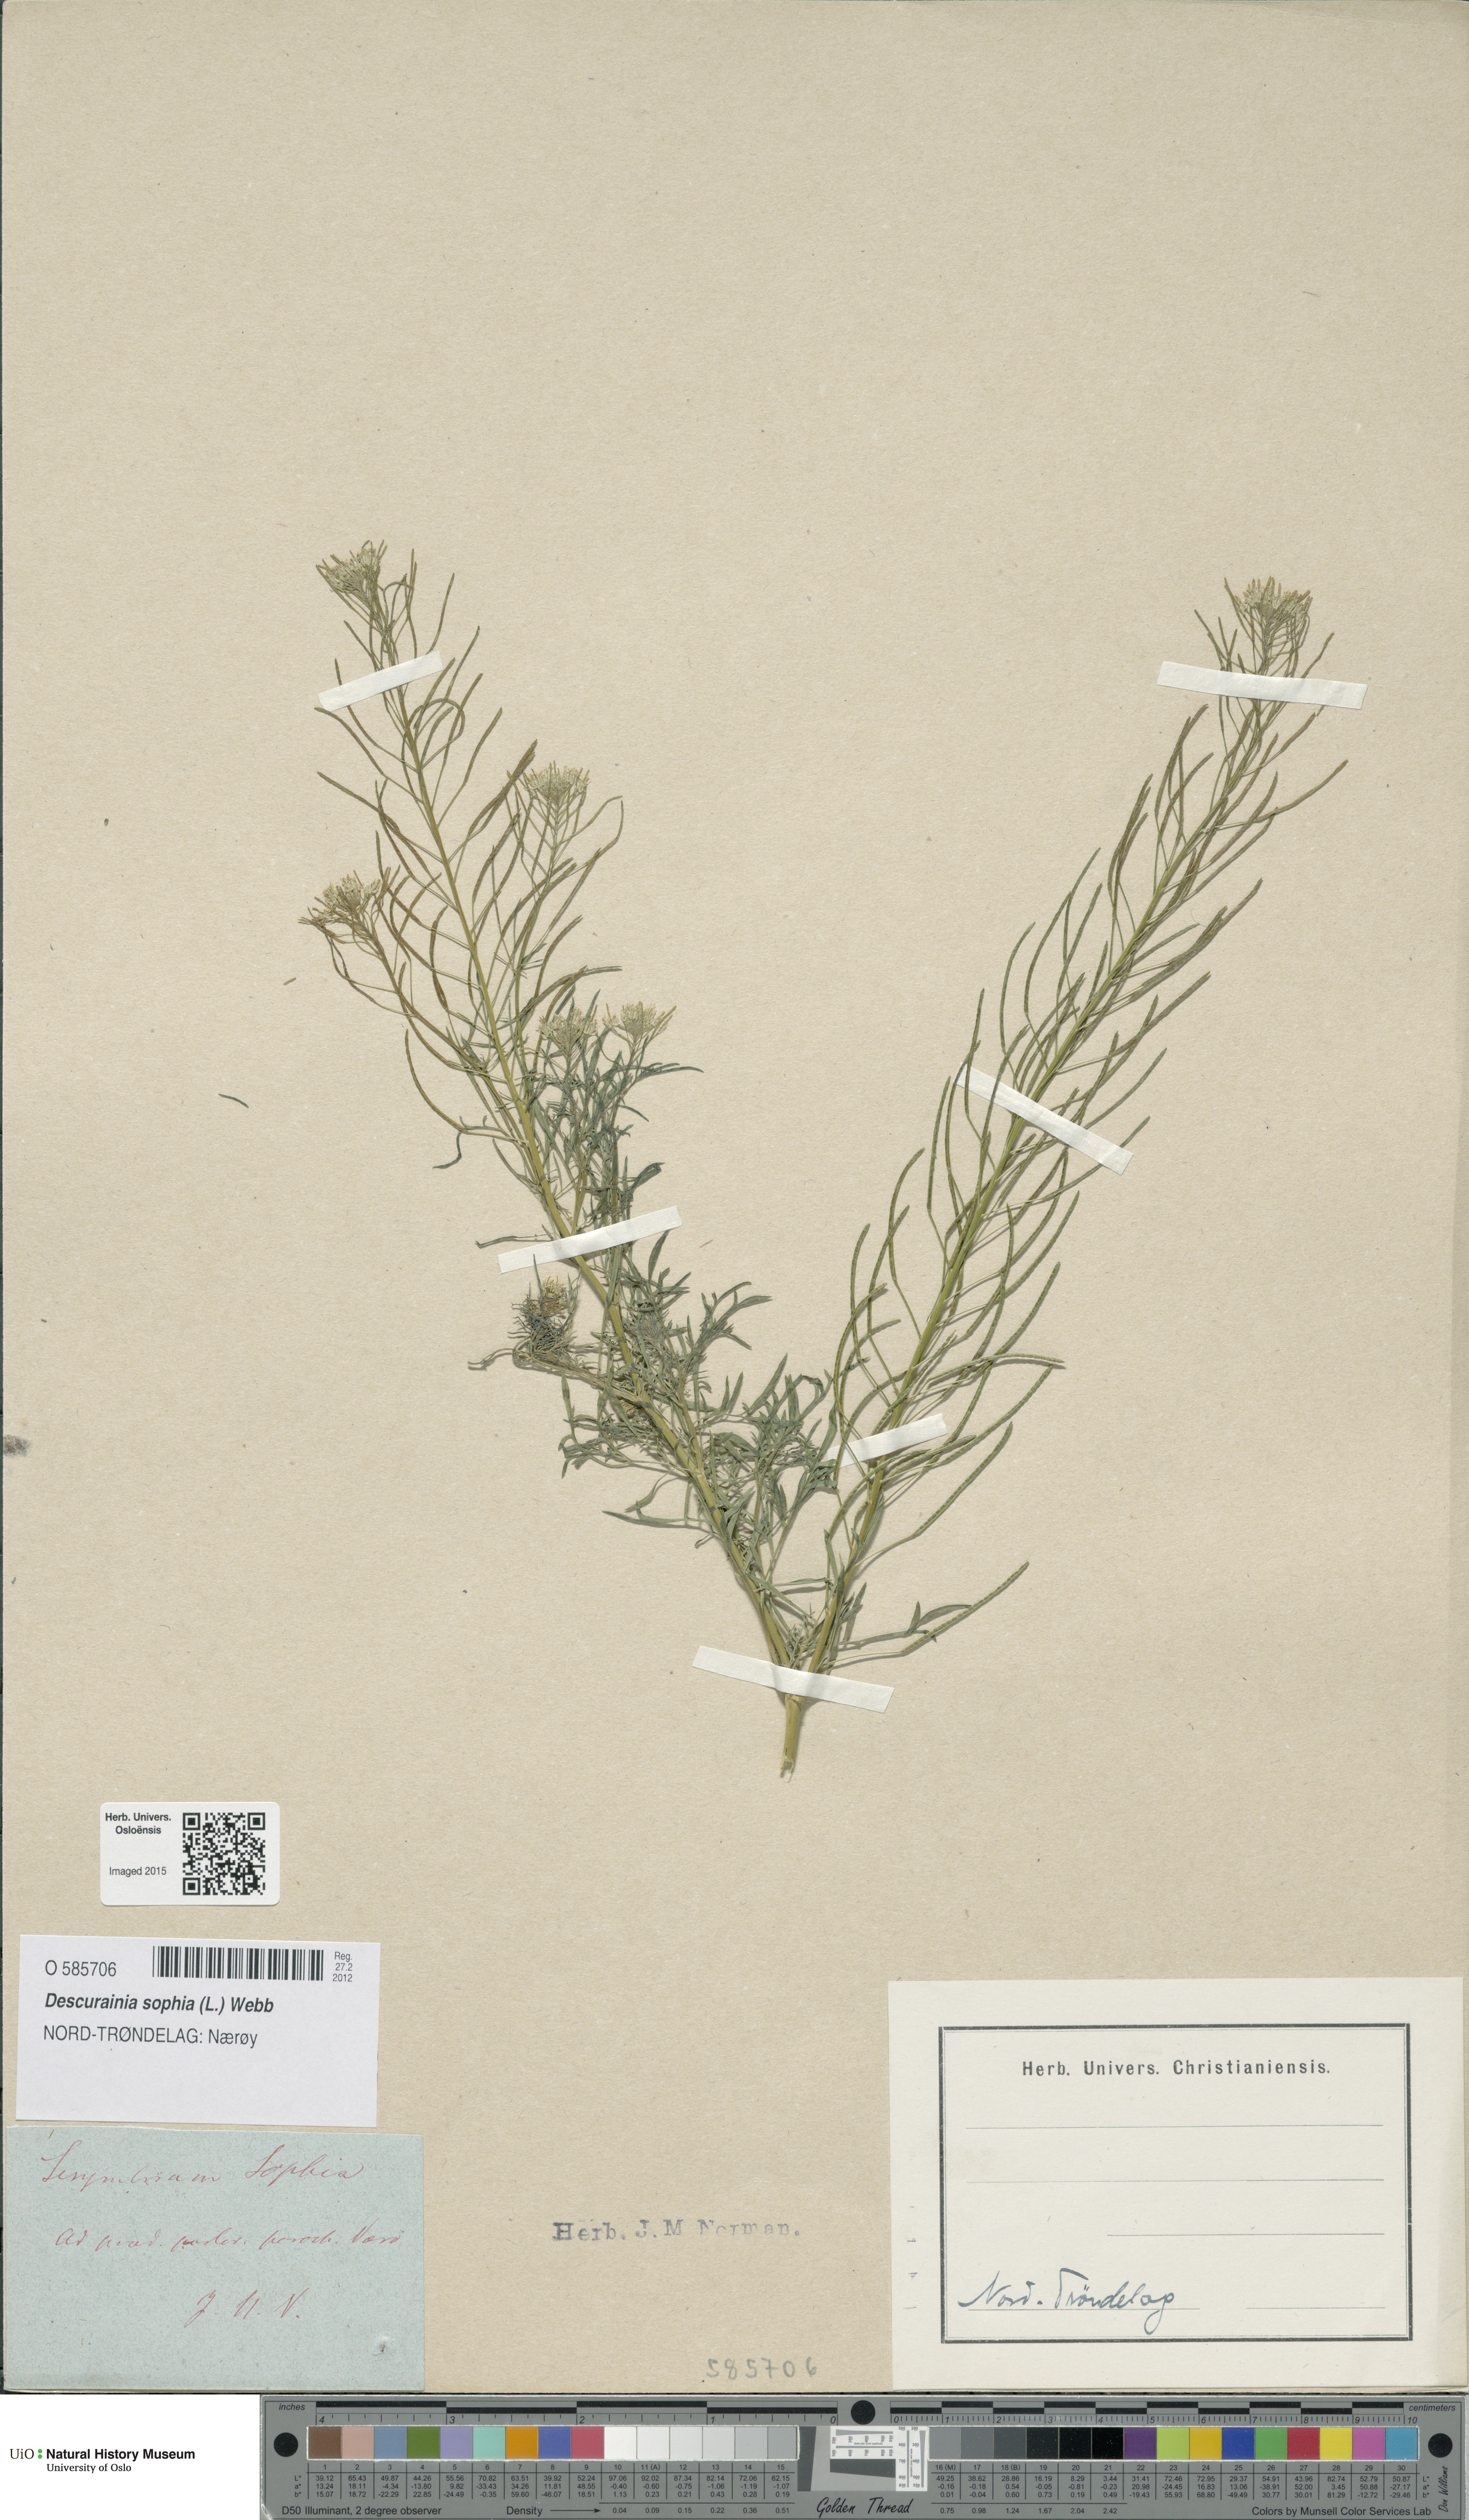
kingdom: Plantae
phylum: Tracheophyta
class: Magnoliopsida
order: Brassicales
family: Brassicaceae
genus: Descurainia
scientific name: Descurainia sophia
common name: Flixweed
